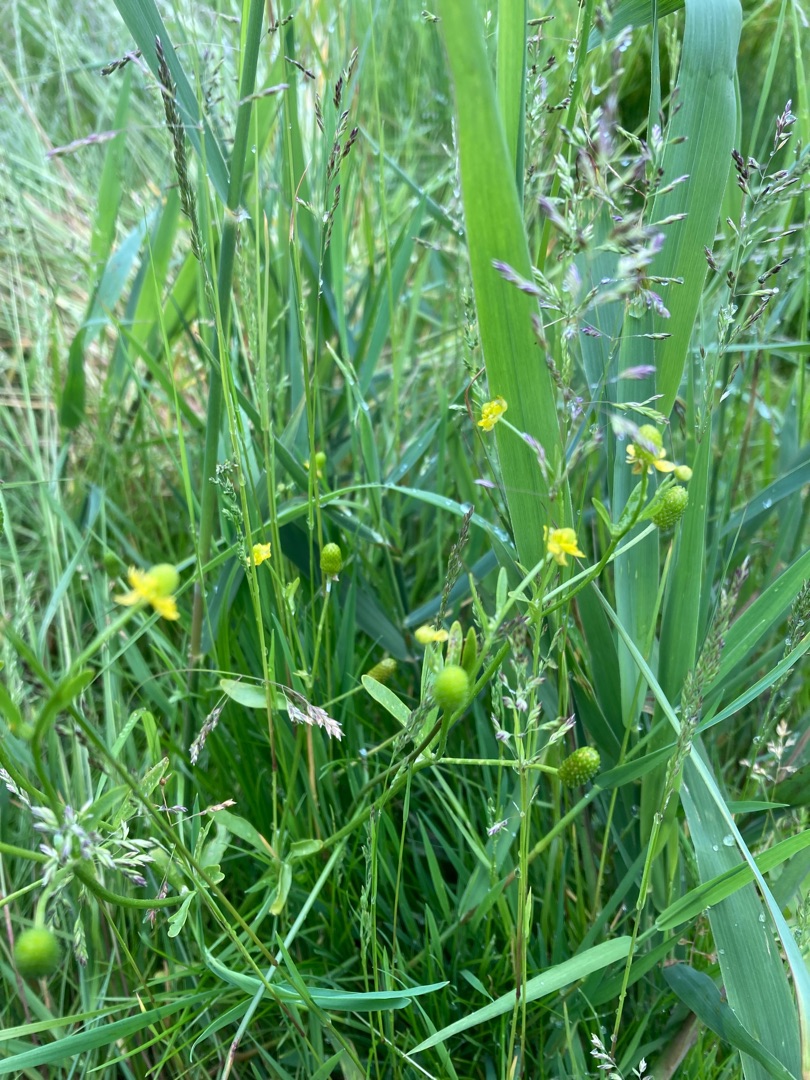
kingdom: Plantae
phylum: Tracheophyta
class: Magnoliopsida
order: Ranunculales
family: Ranunculaceae
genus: Ranunculus
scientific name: Ranunculus sceleratus
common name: Tigger-ranunkel
